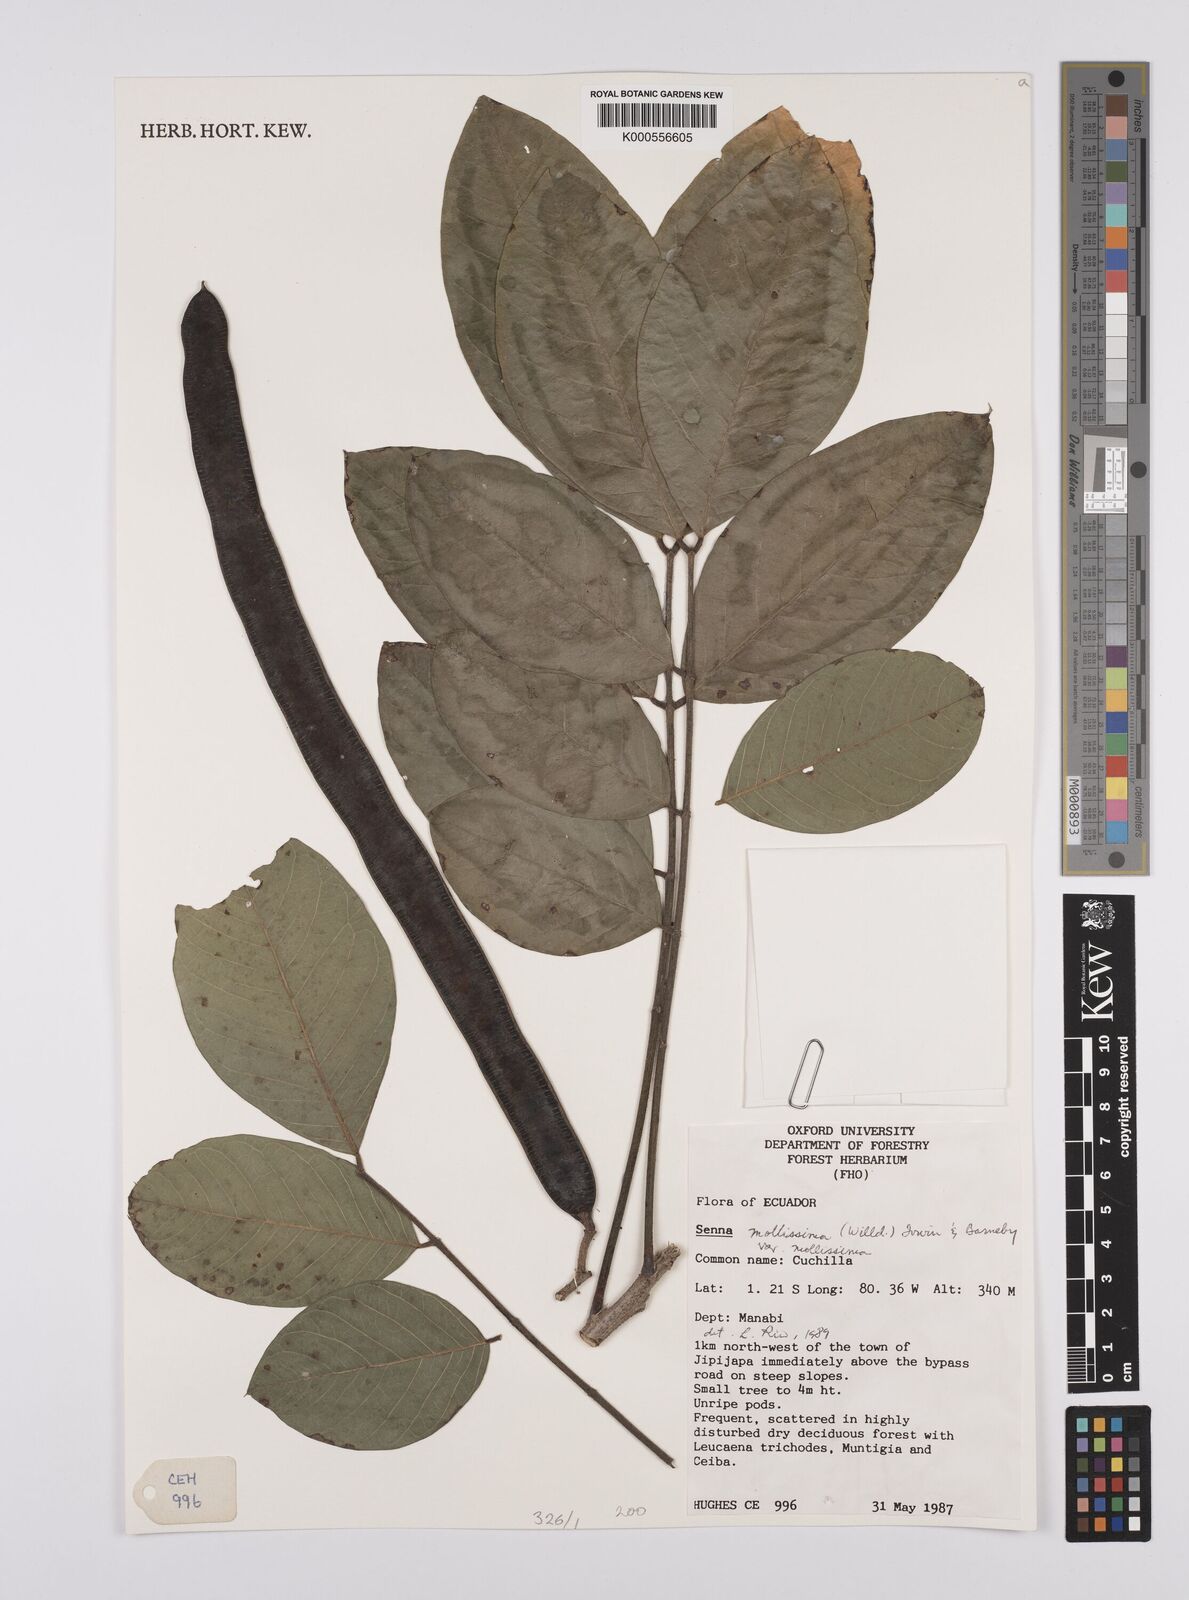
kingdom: Plantae
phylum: Tracheophyta
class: Magnoliopsida
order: Fabales
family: Fabaceae
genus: Senna
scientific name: Senna mollissima
